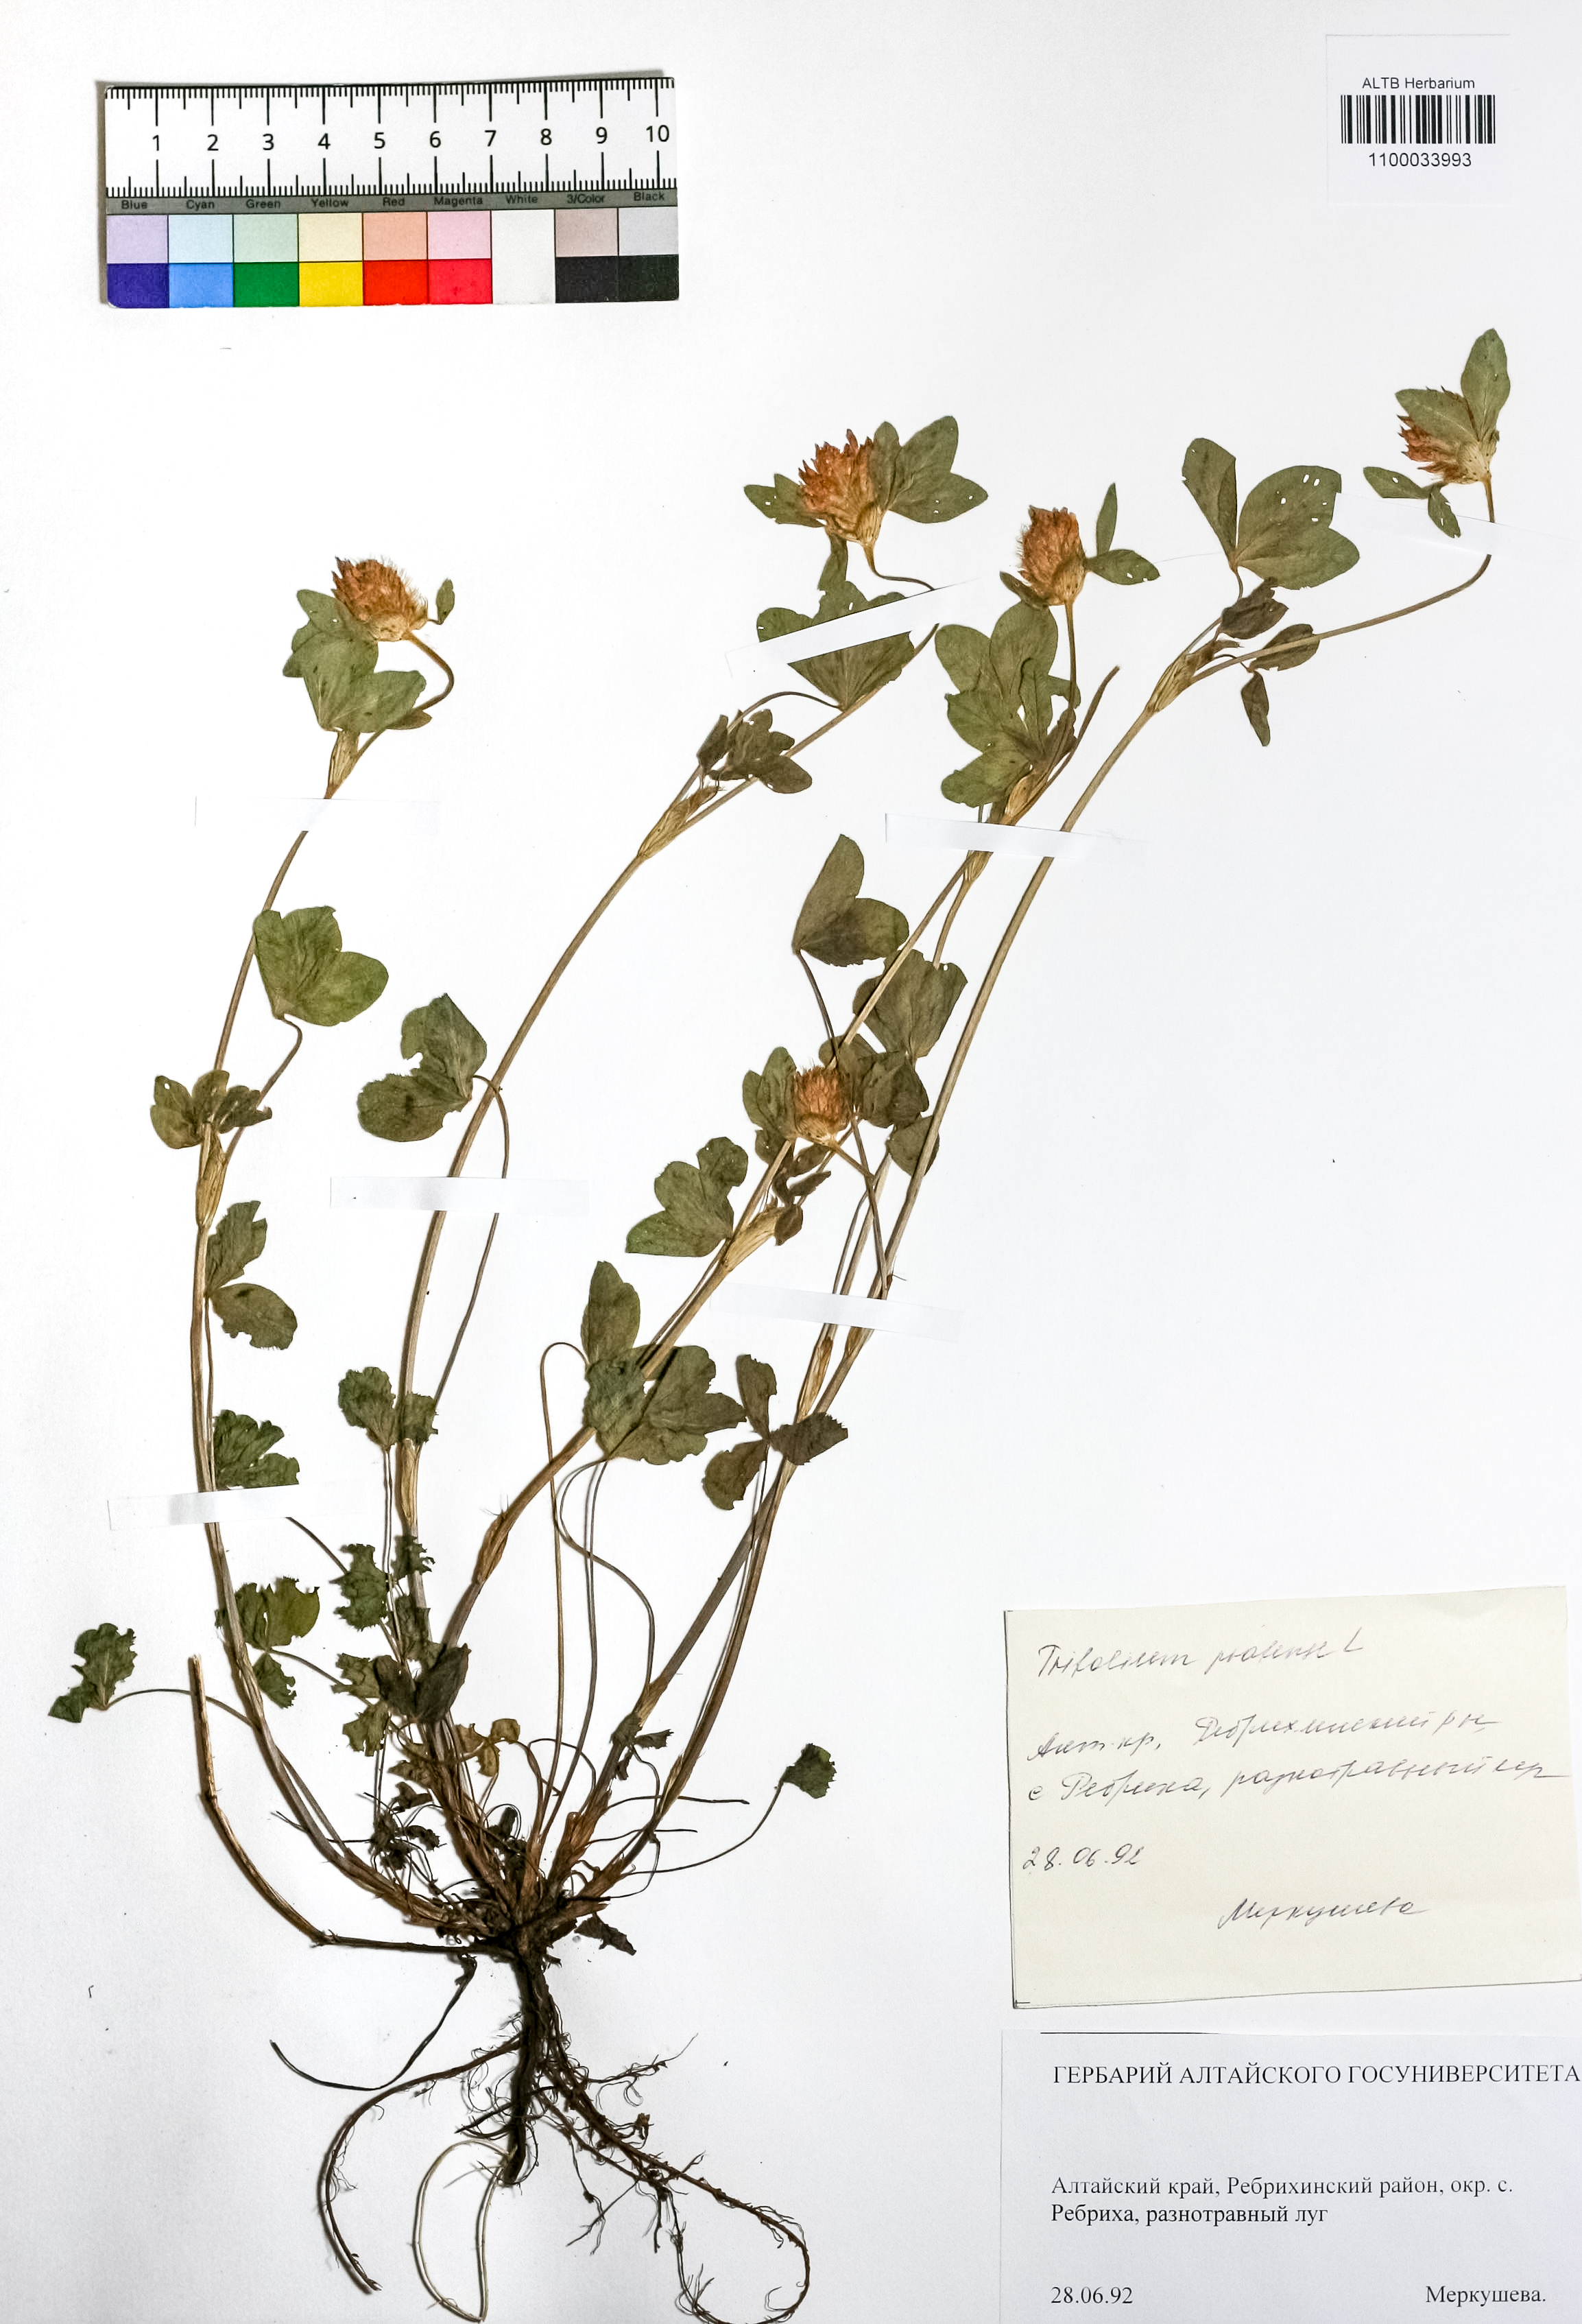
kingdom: Plantae
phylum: Tracheophyta
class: Magnoliopsida
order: Fabales
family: Fabaceae
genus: Trifolium
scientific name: Trifolium pratense
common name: Red clover
